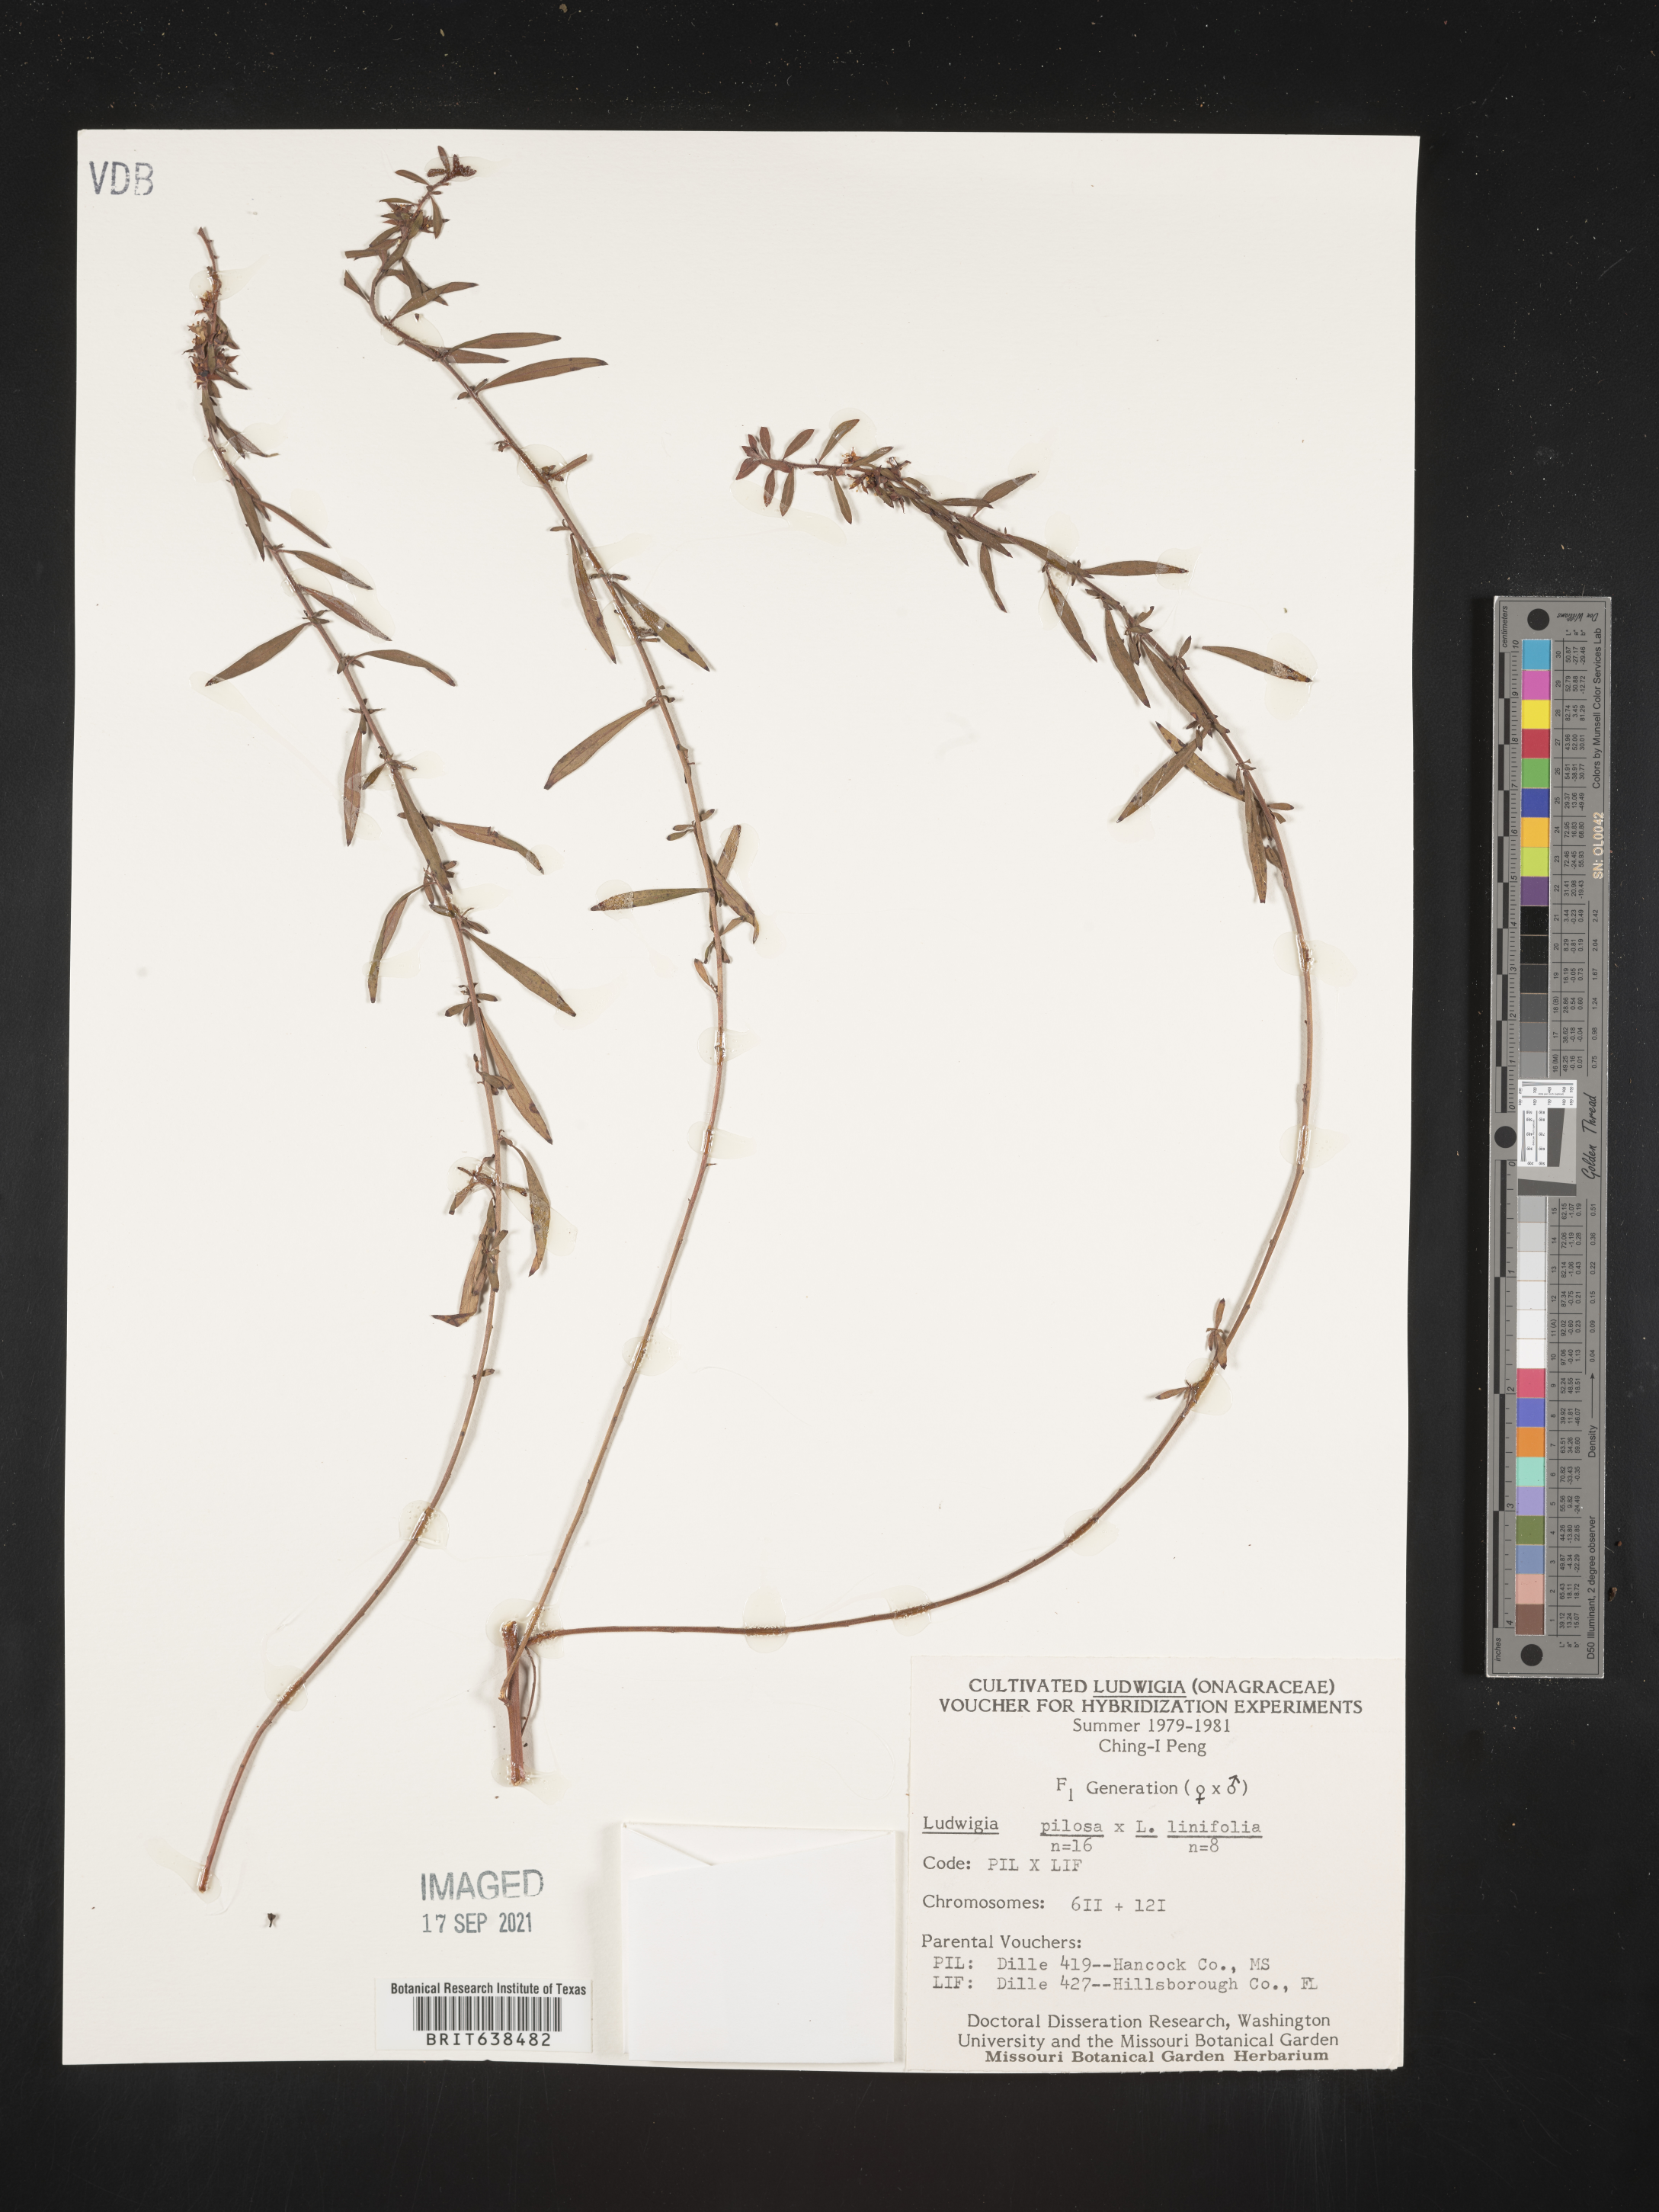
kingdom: Plantae
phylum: Tracheophyta
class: Magnoliopsida
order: Myrtales
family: Onagraceae
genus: Ludwigia
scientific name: Ludwigia
